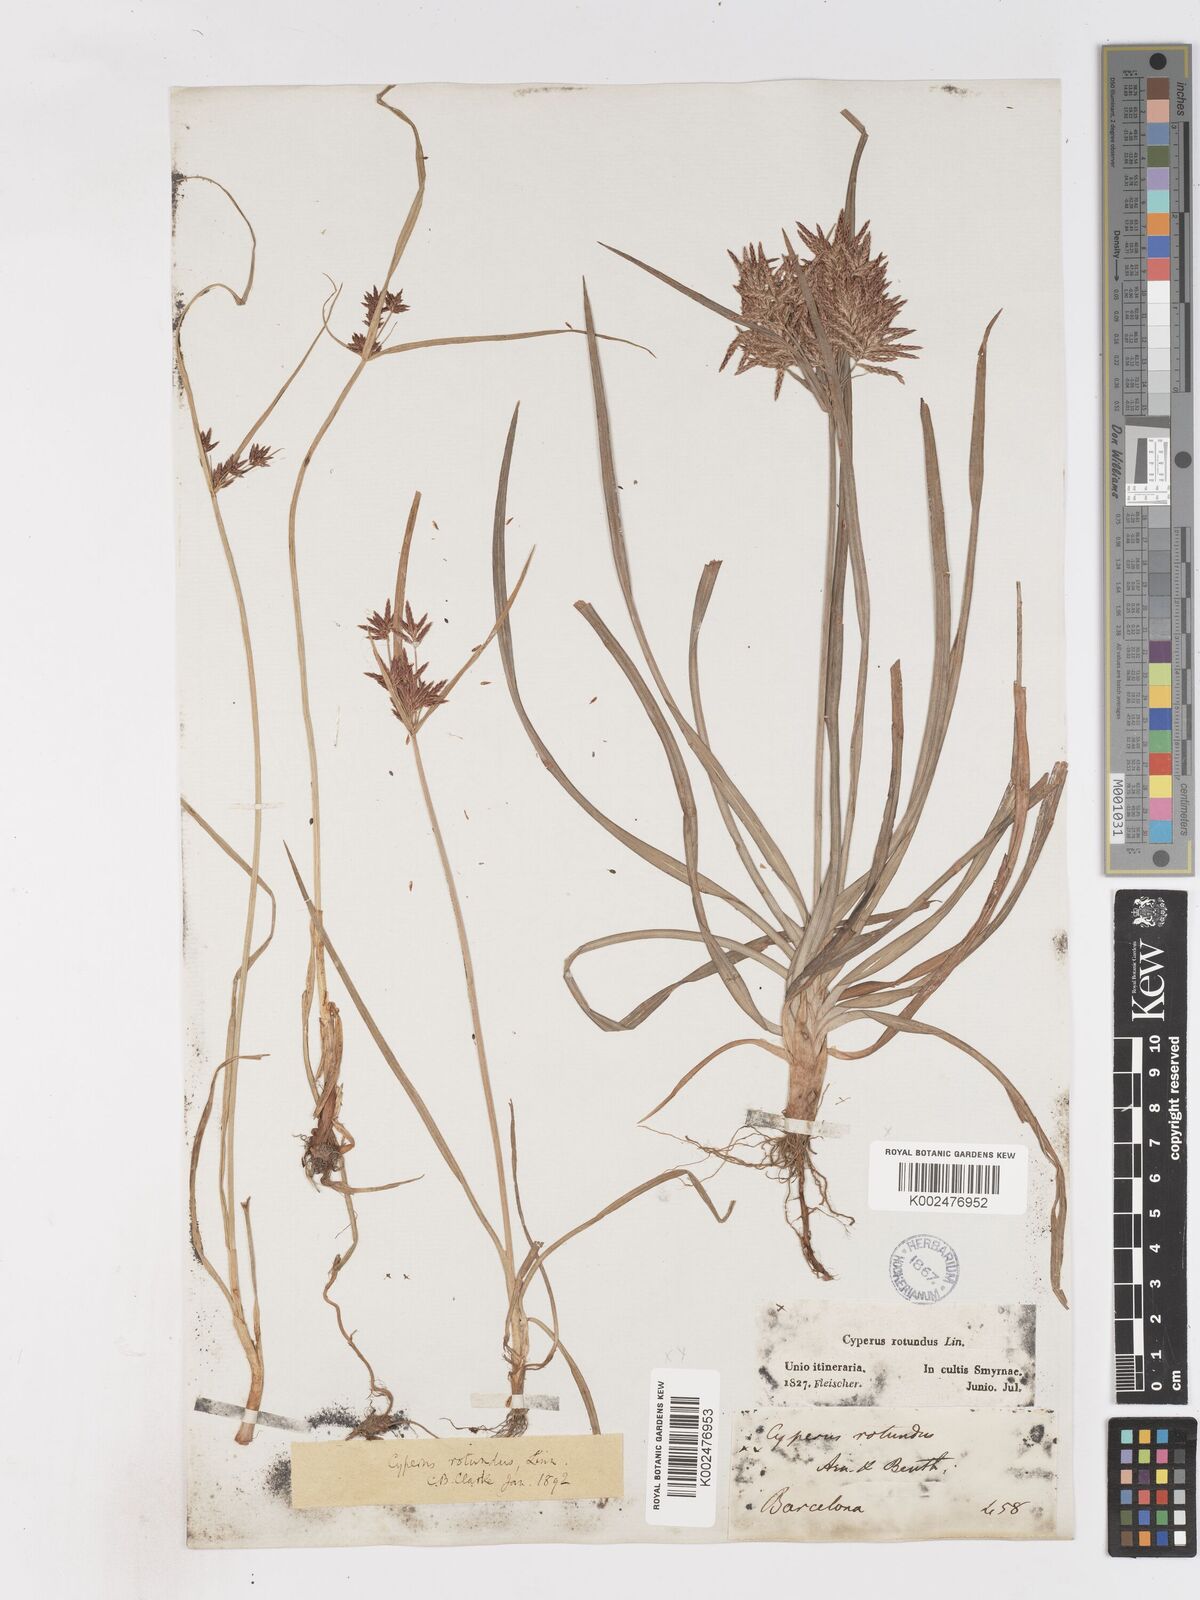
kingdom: Plantae
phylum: Tracheophyta
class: Liliopsida
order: Poales
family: Cyperaceae
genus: Cyperus
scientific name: Cyperus rotundus
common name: Nutgrass
